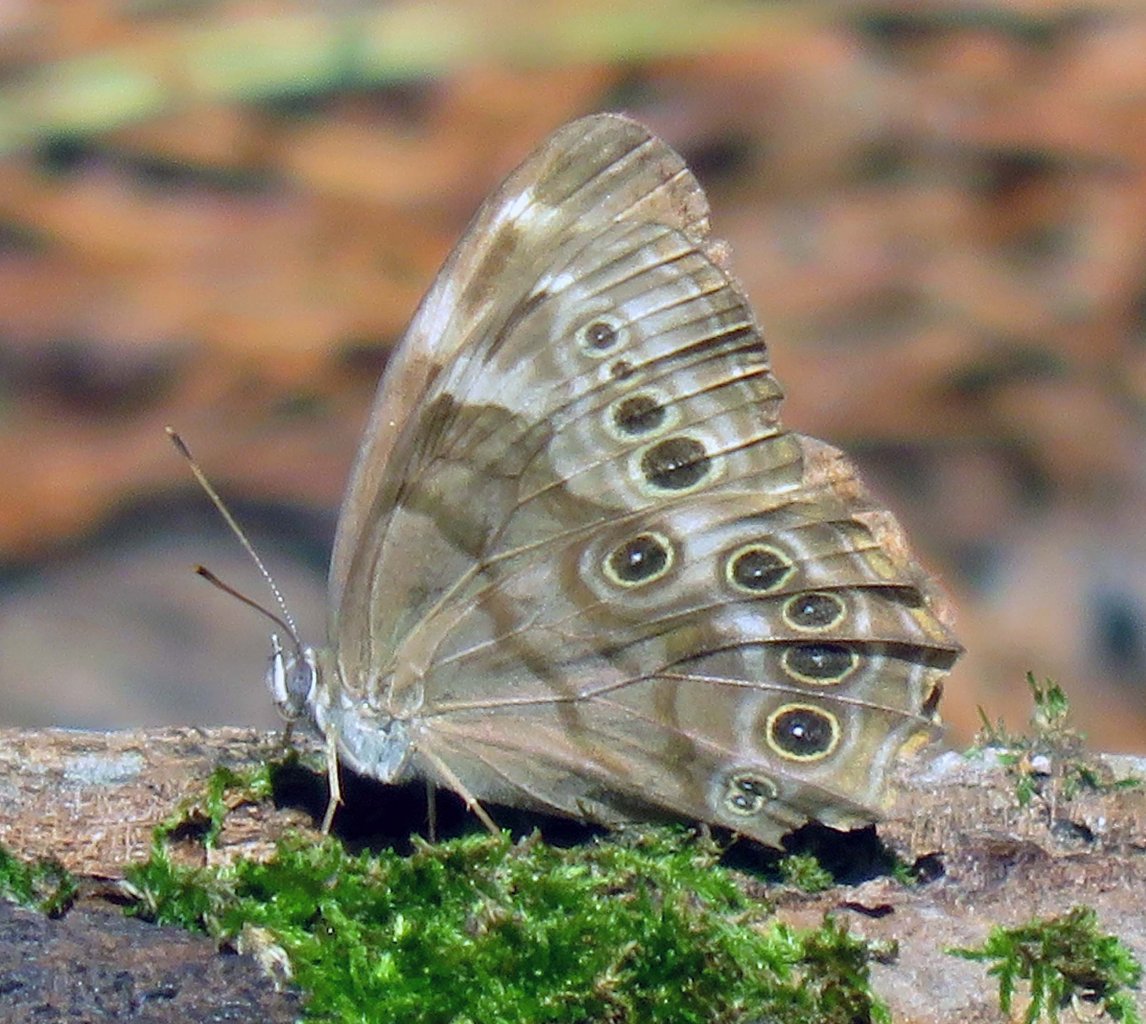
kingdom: Animalia
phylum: Arthropoda
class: Insecta
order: Lepidoptera
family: Nymphalidae
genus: Lethe
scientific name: Lethe anthedon
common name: Northern Pearly-Eye
